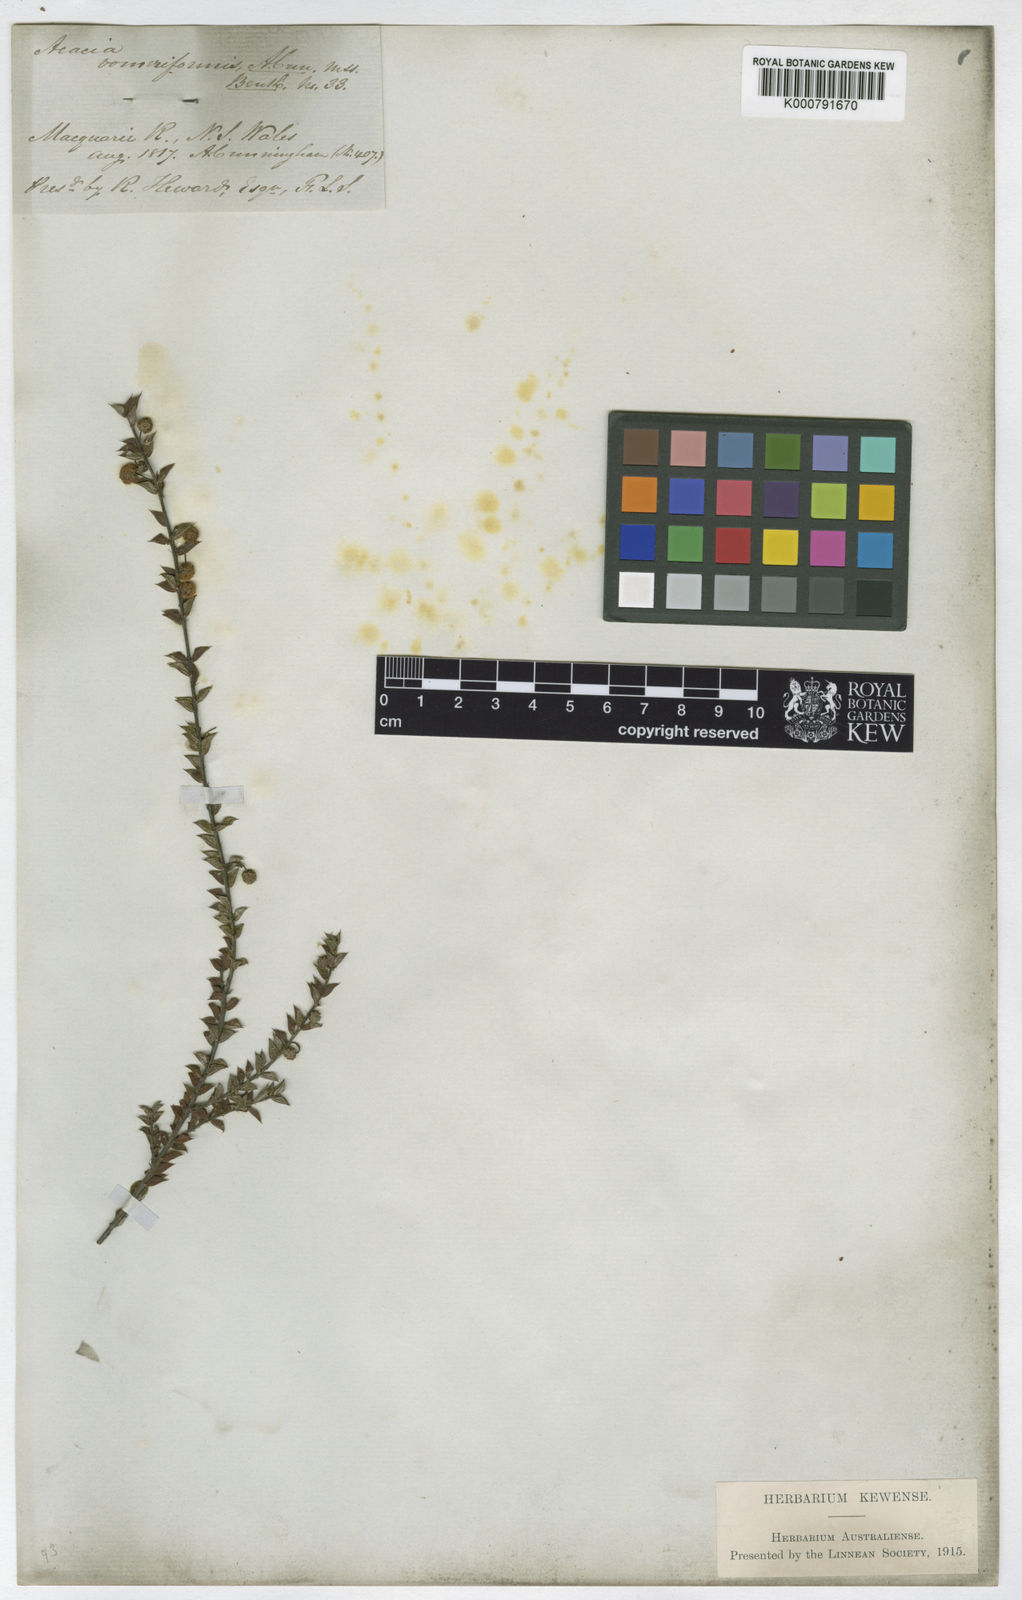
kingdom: Plantae
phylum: Tracheophyta
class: Magnoliopsida
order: Fabales
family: Fabaceae
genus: Acacia
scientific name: Acacia gunnii
